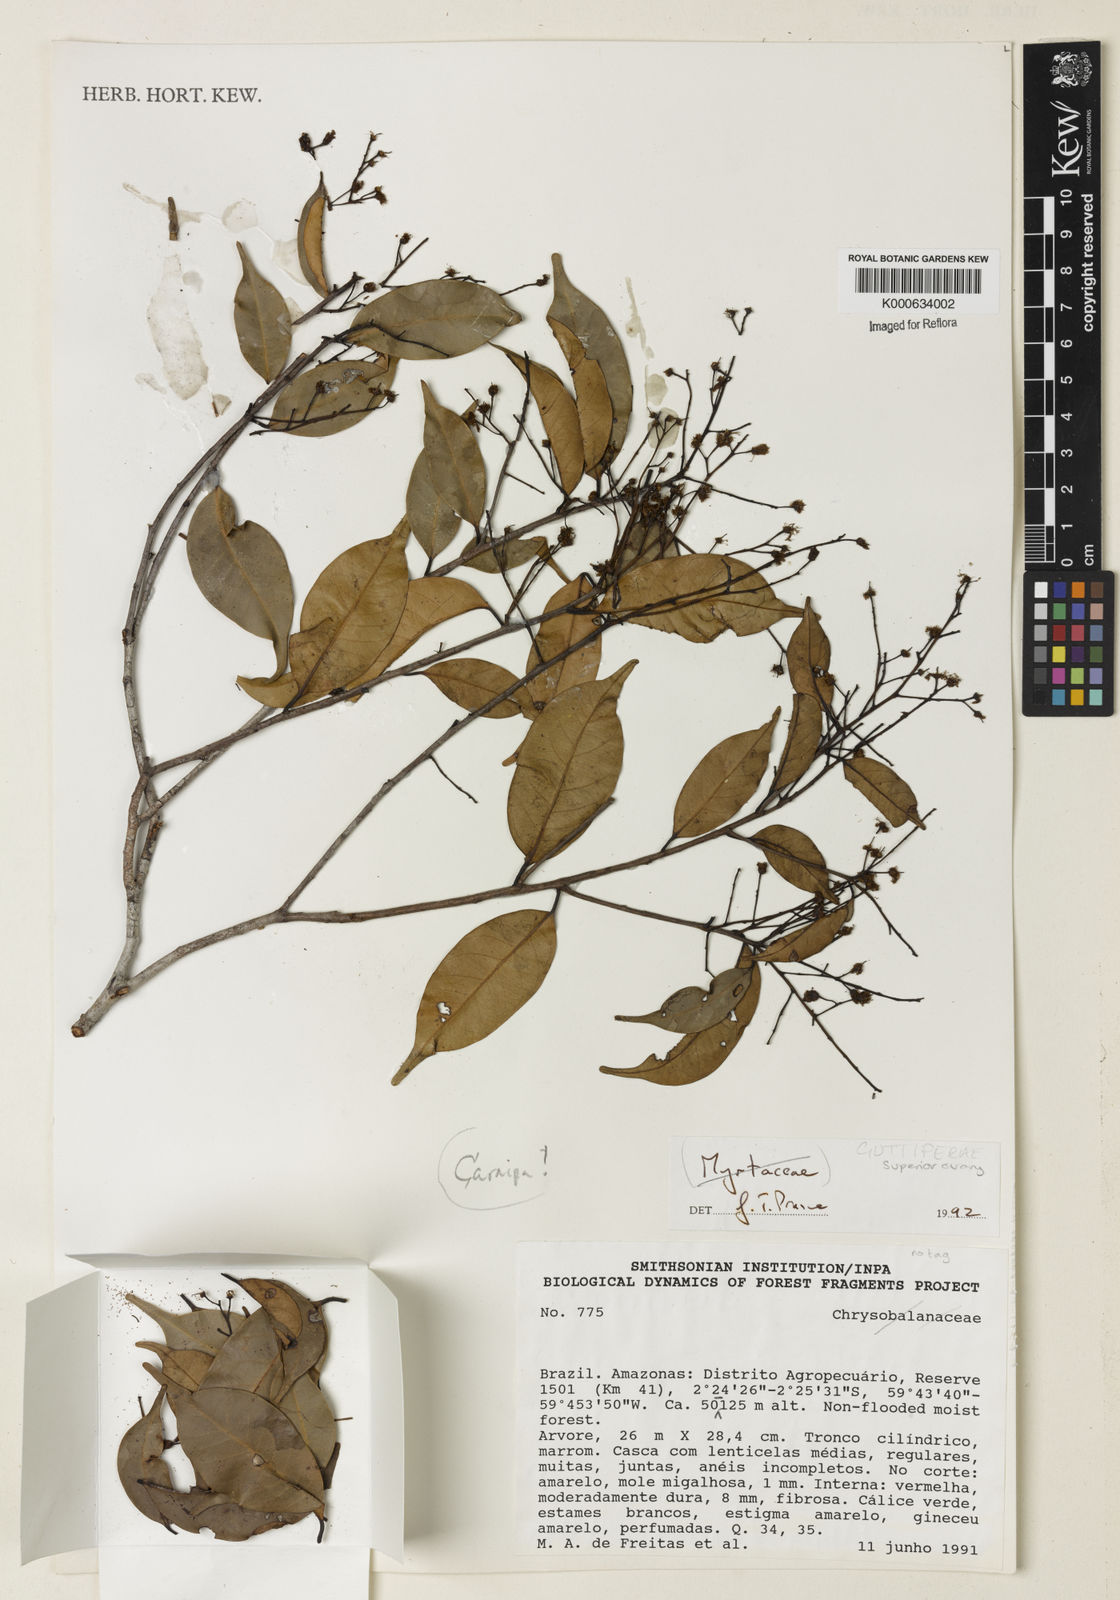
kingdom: Plantae
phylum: Tracheophyta
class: Magnoliopsida
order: Cucurbitales
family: Begoniaceae
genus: Begonia
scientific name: Begonia
